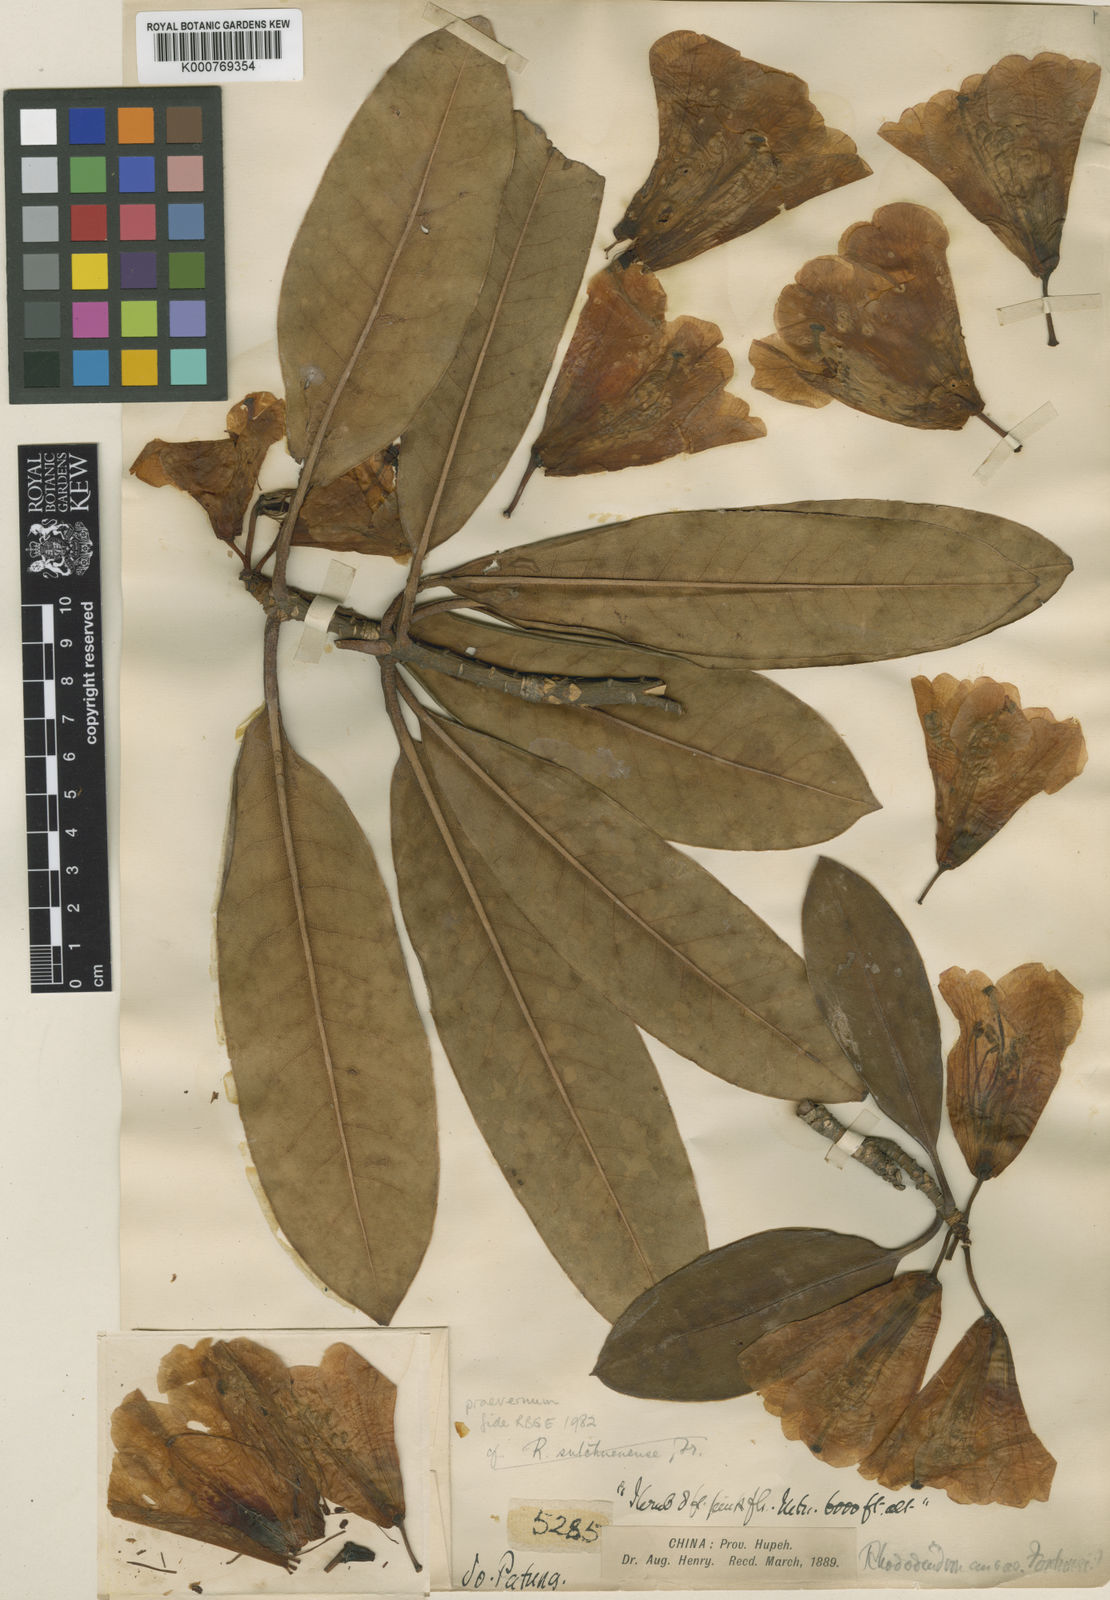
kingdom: Plantae
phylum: Tracheophyta
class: Magnoliopsida
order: Ericales
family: Ericaceae
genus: Rhododendron
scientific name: Rhododendron praevernum
